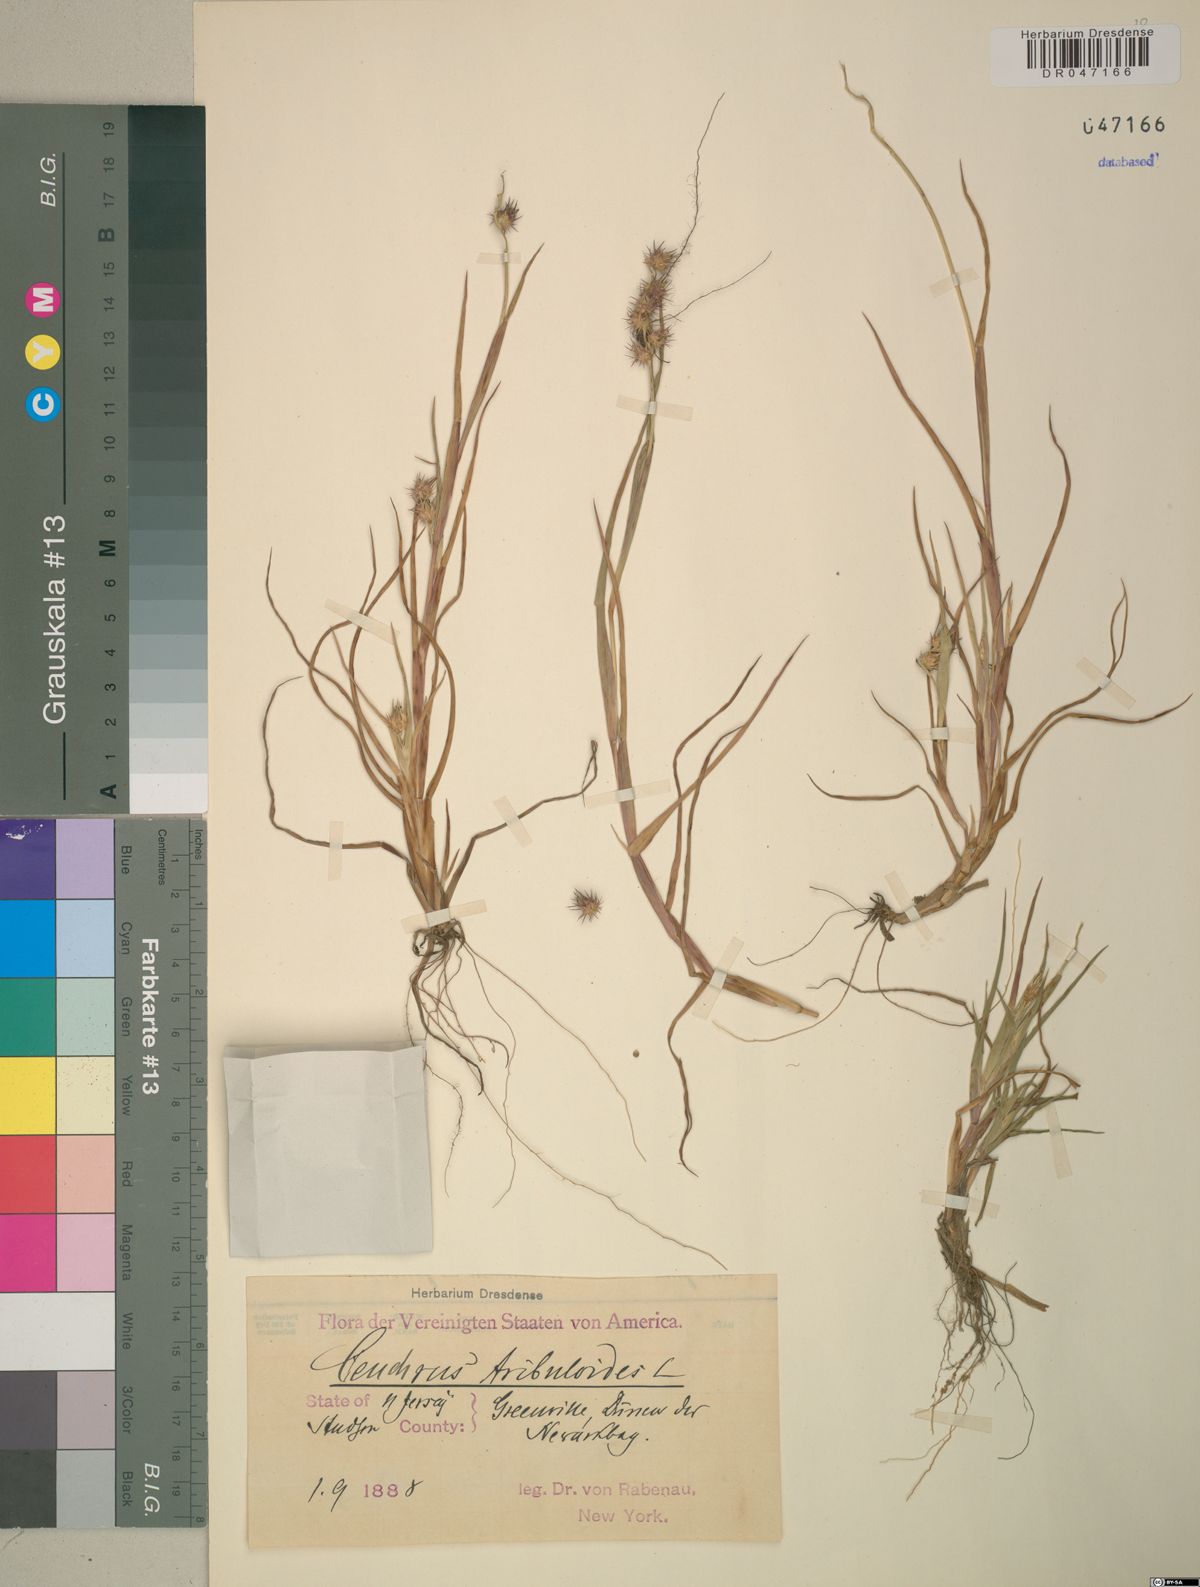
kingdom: Plantae
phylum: Tracheophyta
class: Liliopsida
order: Poales
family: Poaceae
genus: Cenchrus
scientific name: Cenchrus tribuloides
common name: Dune sandbur
